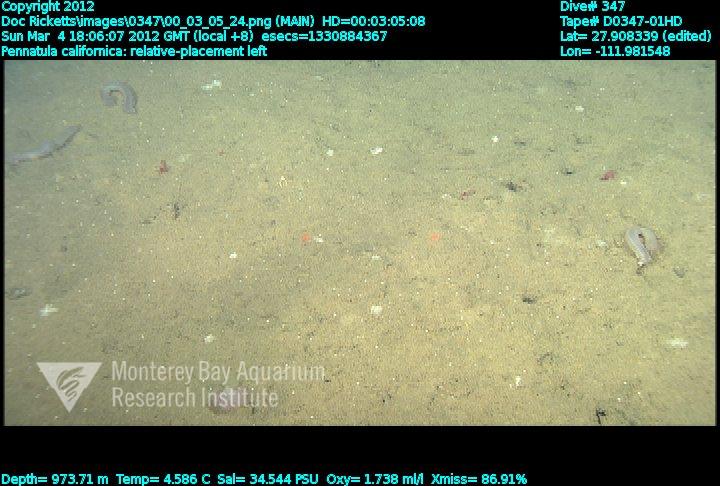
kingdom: Animalia
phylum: Cnidaria
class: Anthozoa
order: Scleralcyonacea
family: Pennatulidae
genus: Pennatula
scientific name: Pennatula phosphorea
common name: Phosphorescent sea pen
